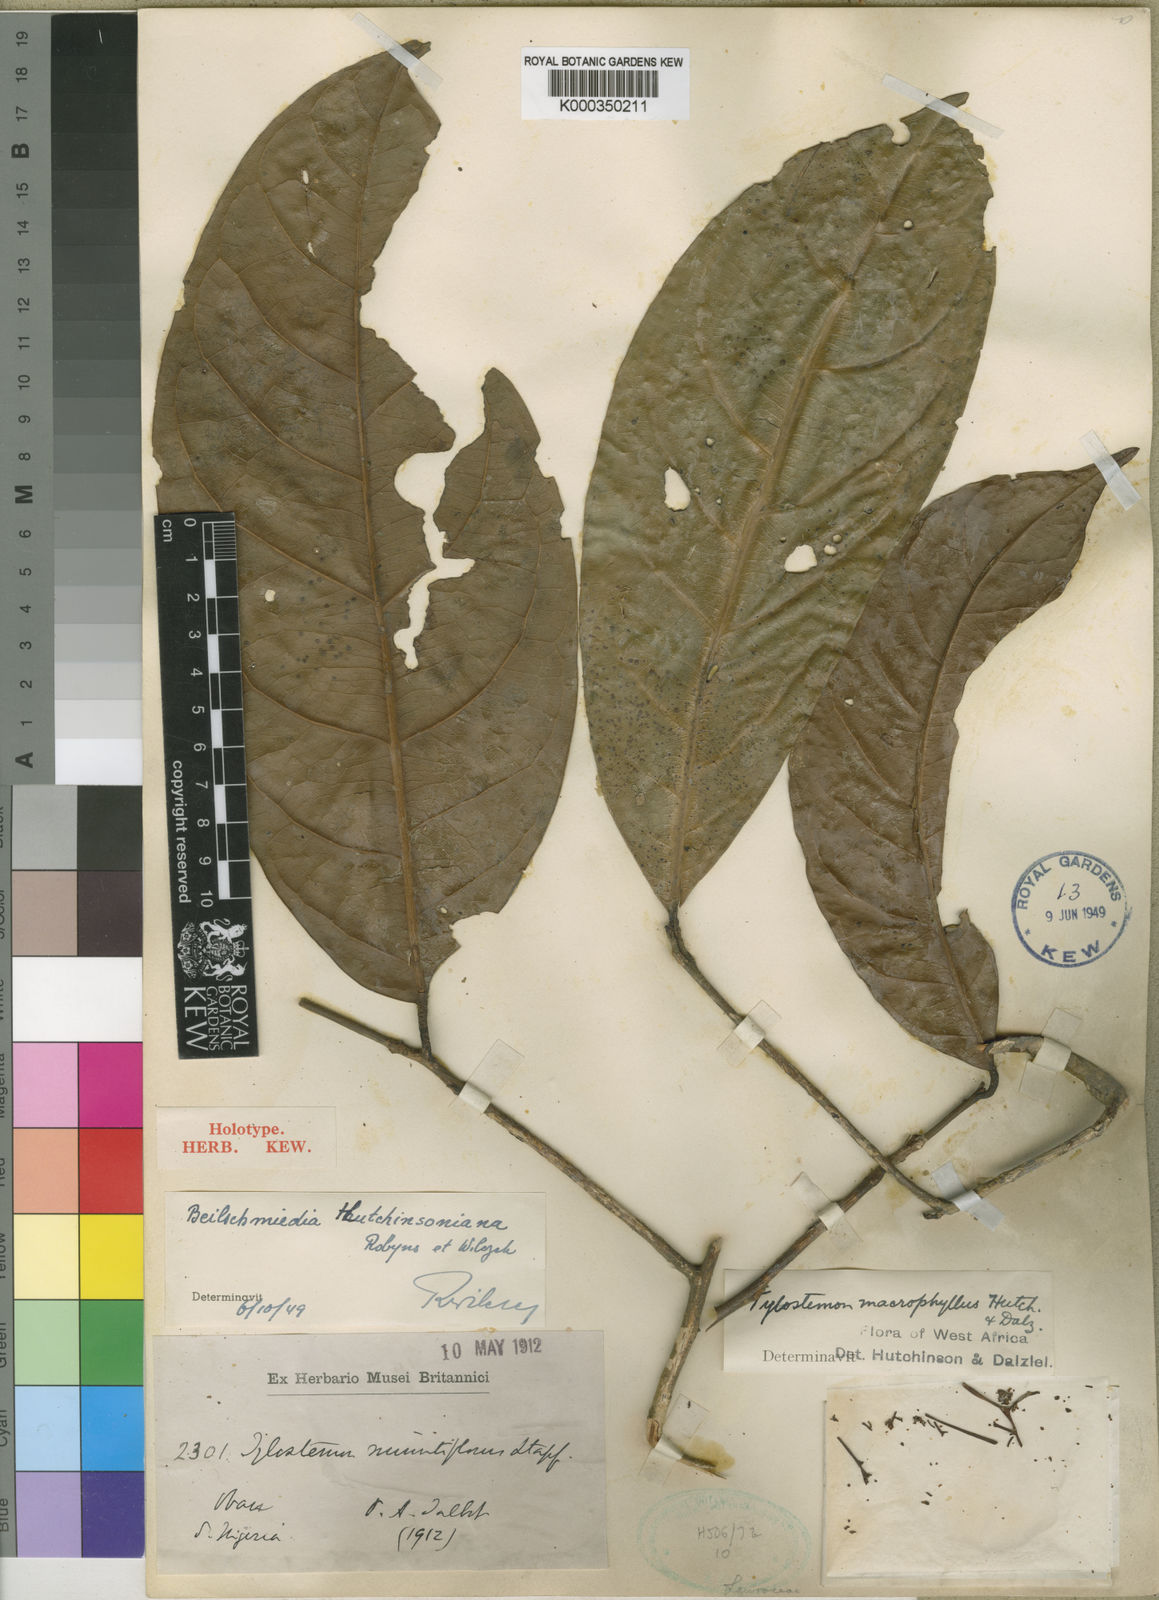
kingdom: Plantae
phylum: Tracheophyta
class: Magnoliopsida
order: Laurales
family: Lauraceae
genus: Beilschmiedia
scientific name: Beilschmiedia hutchinsoniana
